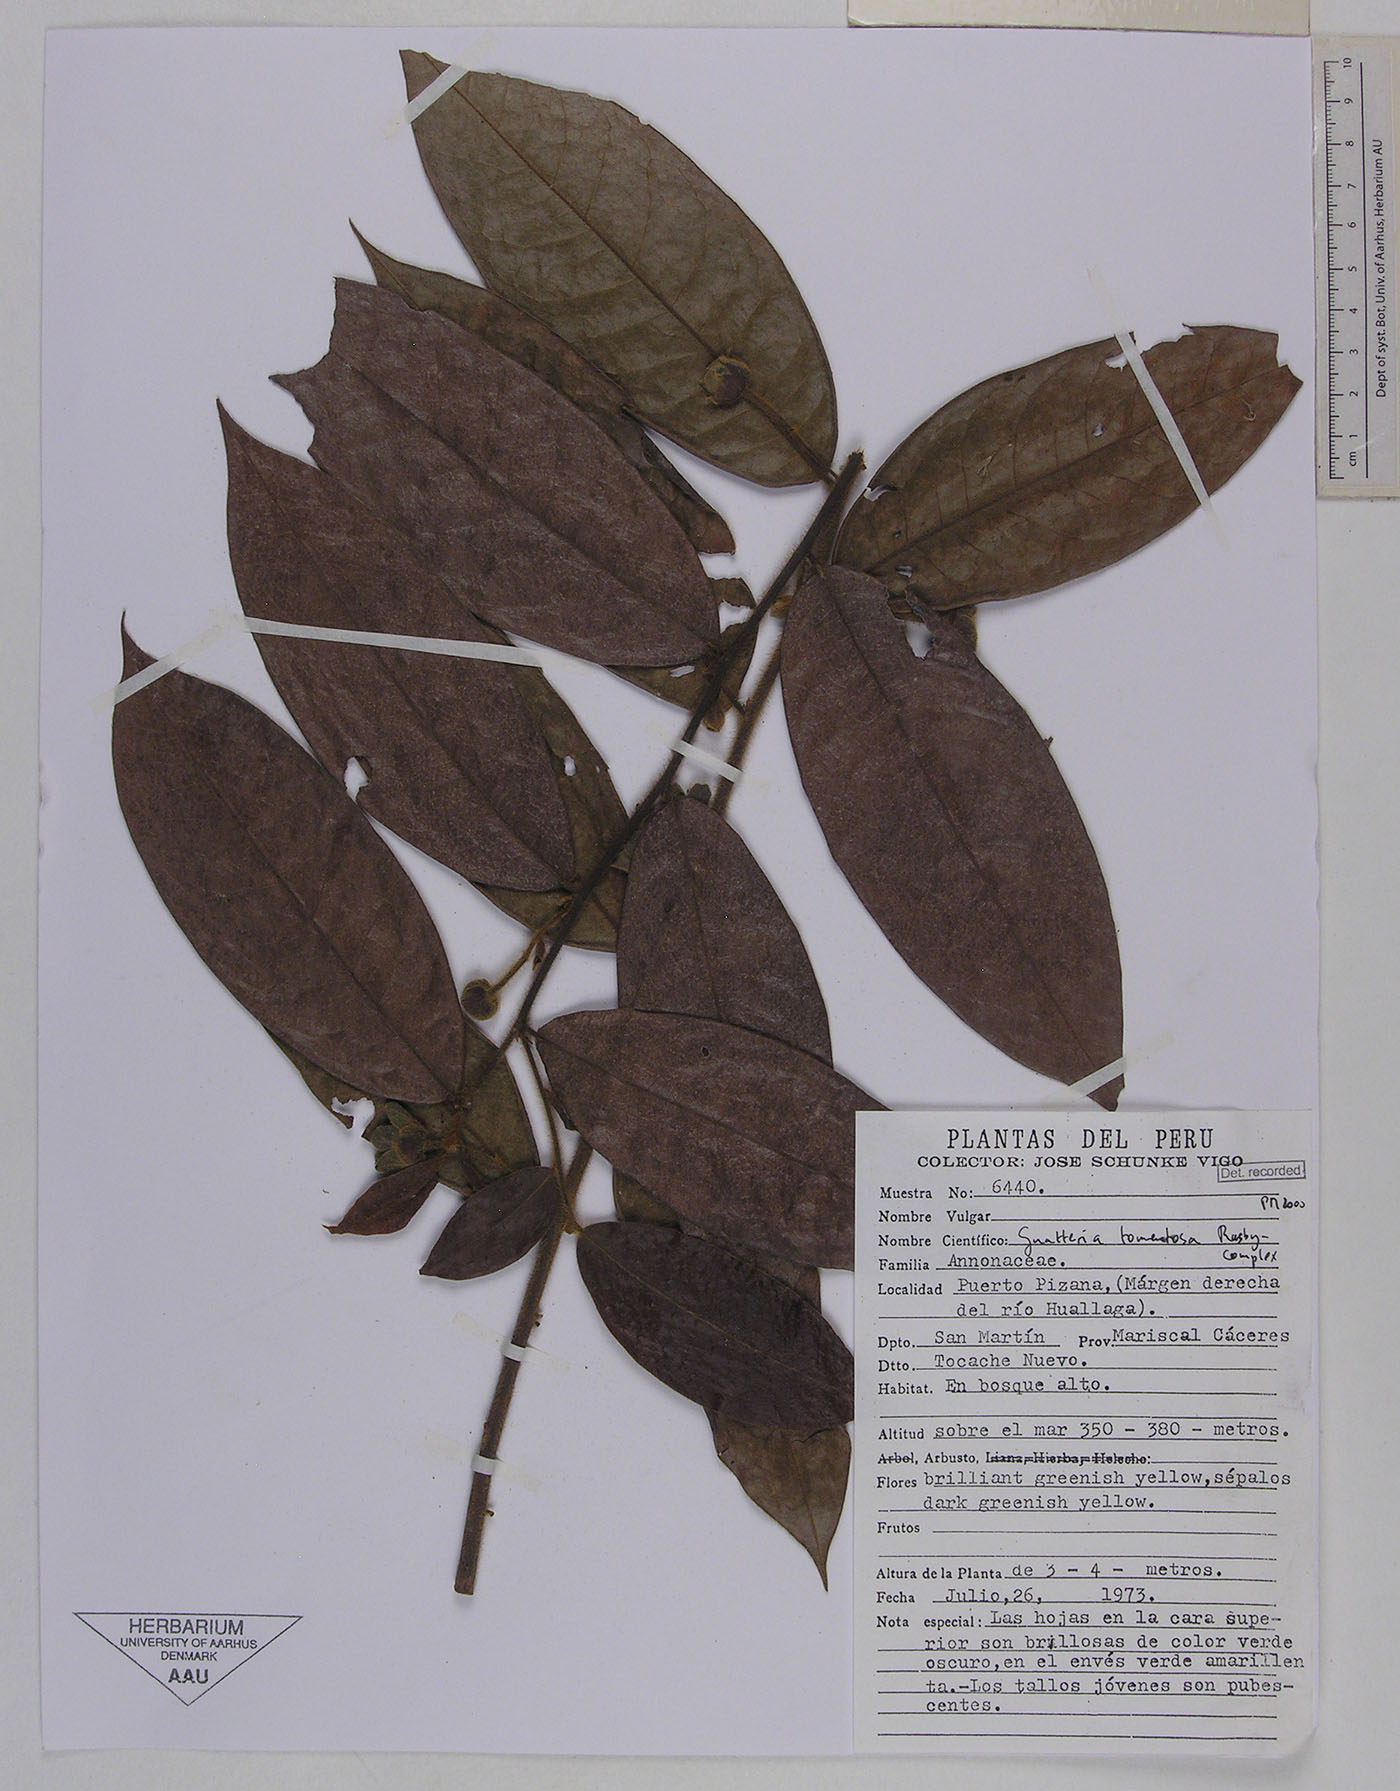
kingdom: Plantae
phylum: Tracheophyta
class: Magnoliopsida
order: Magnoliales
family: Annonaceae
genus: Guatteria
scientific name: Guatteria tomentosa
